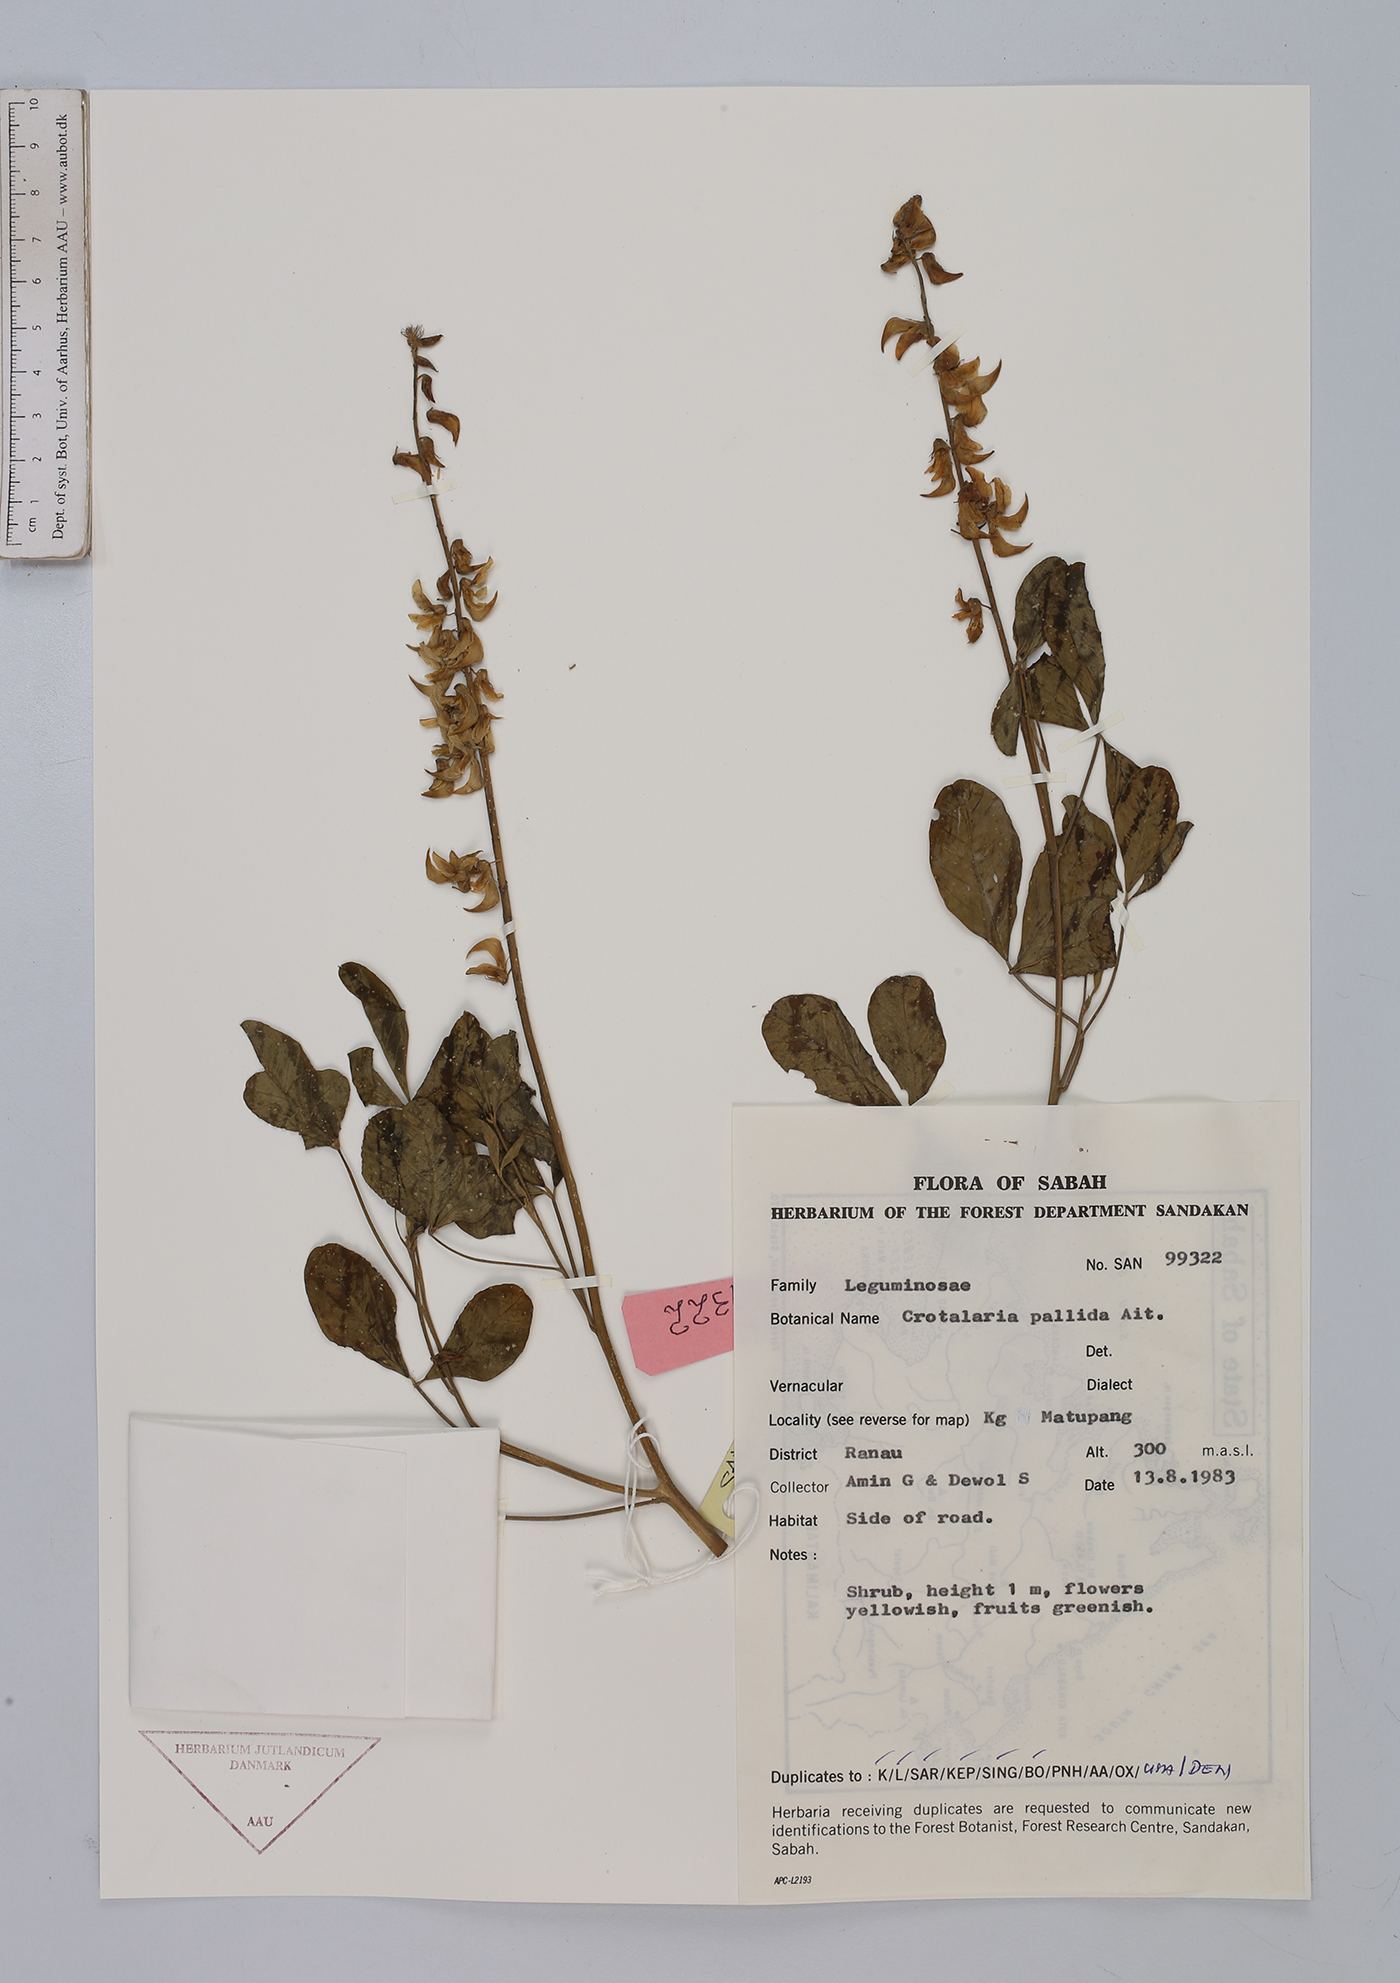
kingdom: Plantae
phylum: Tracheophyta
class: Magnoliopsida
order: Fabales
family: Fabaceae
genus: Crotalaria
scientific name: Crotalaria pallida
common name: Smooth rattlebox
